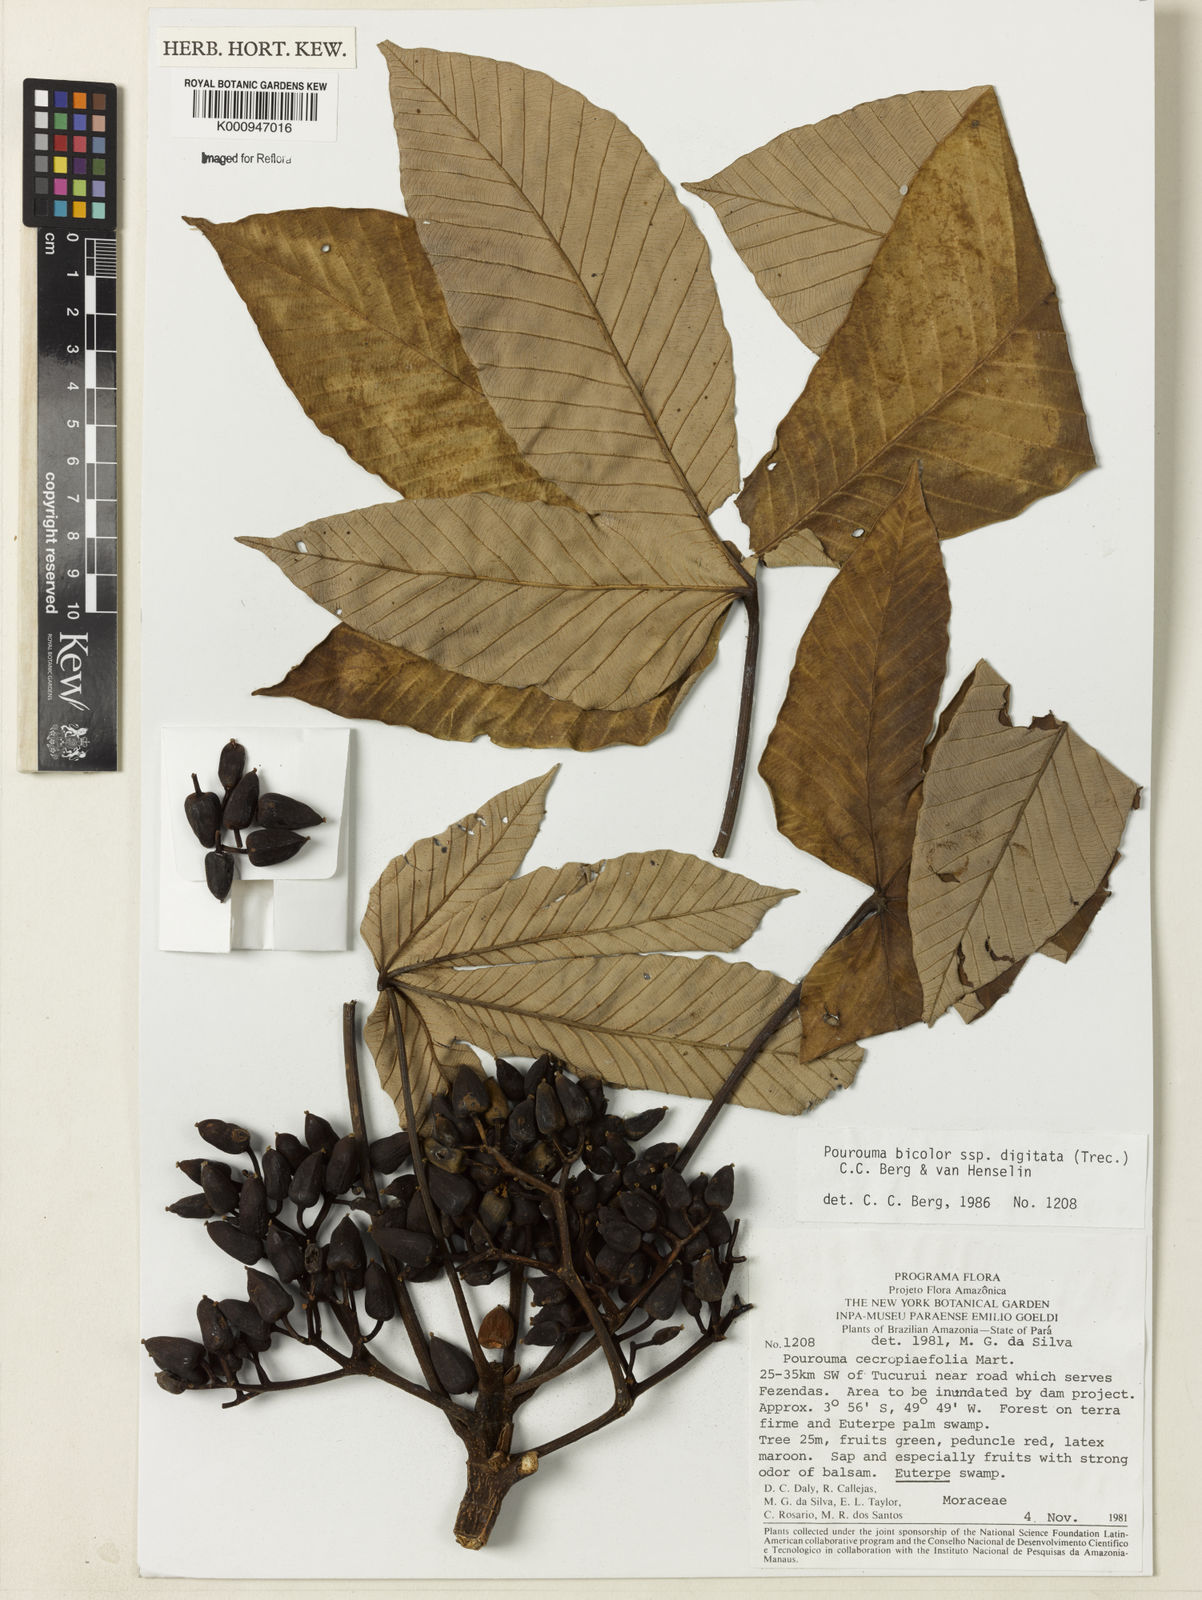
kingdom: Plantae
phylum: Tracheophyta
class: Magnoliopsida
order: Rosales
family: Urticaceae
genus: Pourouma
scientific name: Pourouma bicolor
